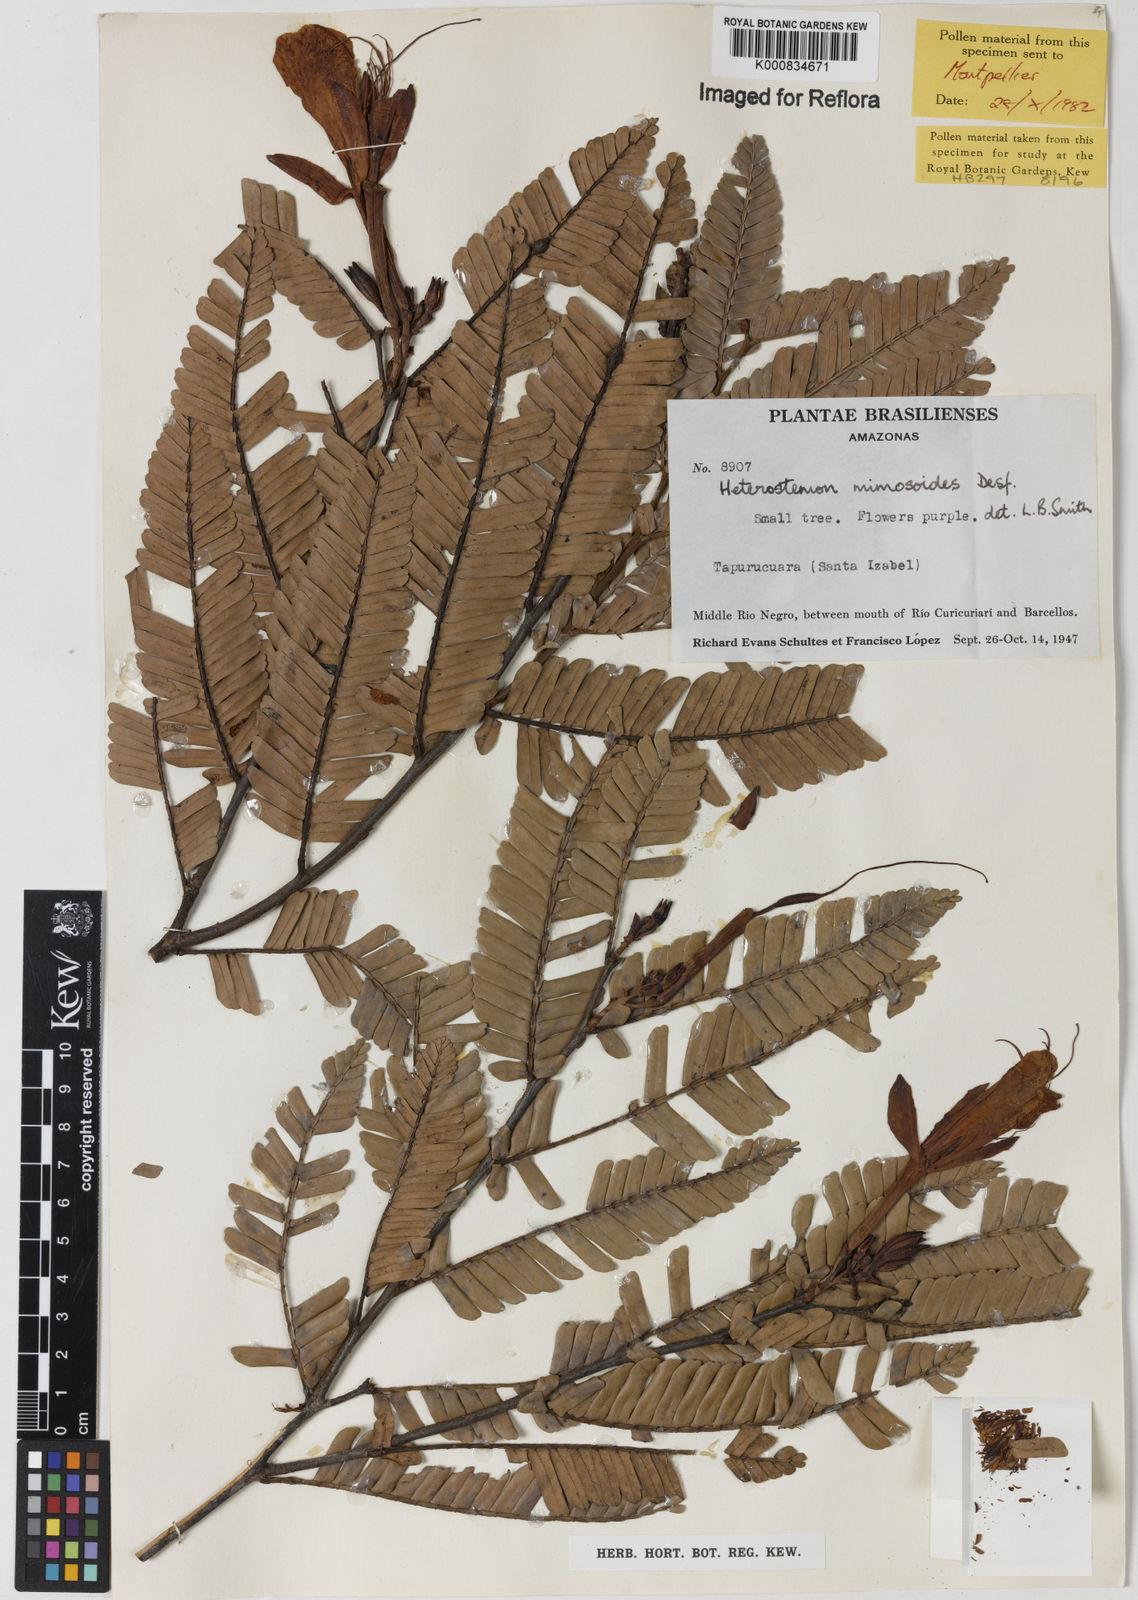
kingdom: Plantae
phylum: Tracheophyta
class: Magnoliopsida
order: Fabales
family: Fabaceae
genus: Heterostemon
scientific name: Heterostemon mimosoides
